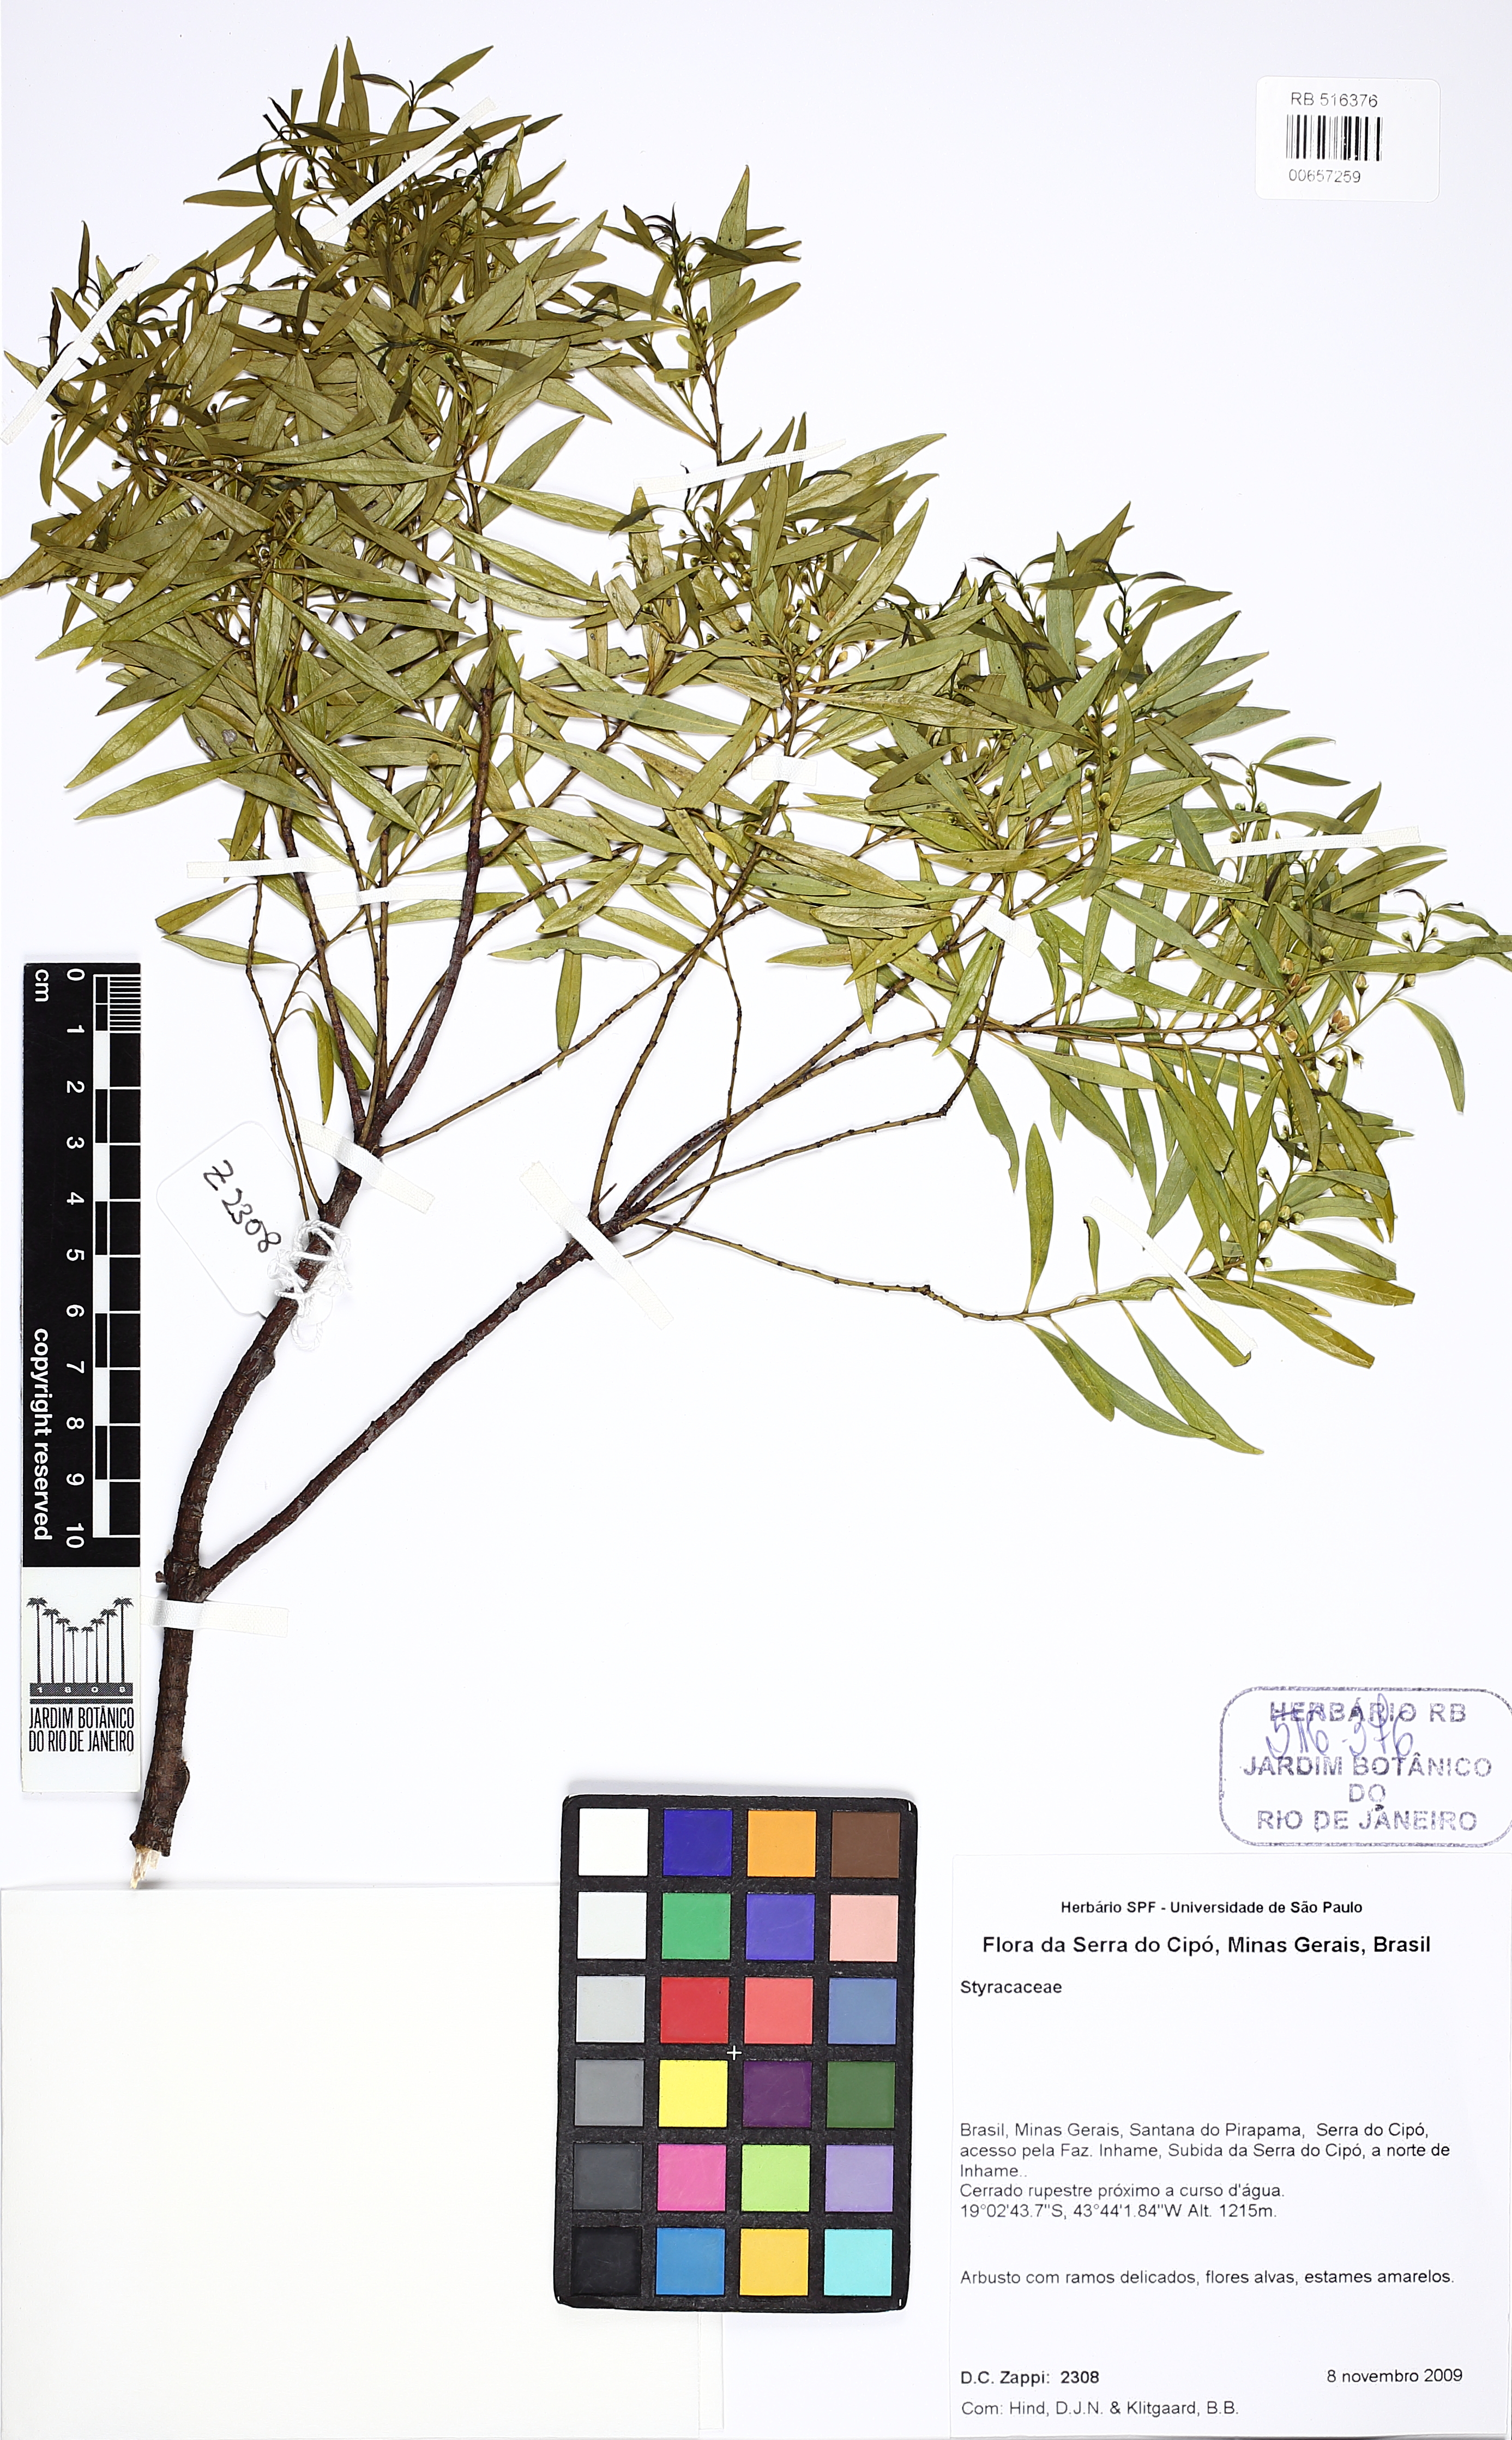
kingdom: Plantae
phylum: Tracheophyta
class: Magnoliopsida
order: Ericales
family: Styracaceae
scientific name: Styracaceae
